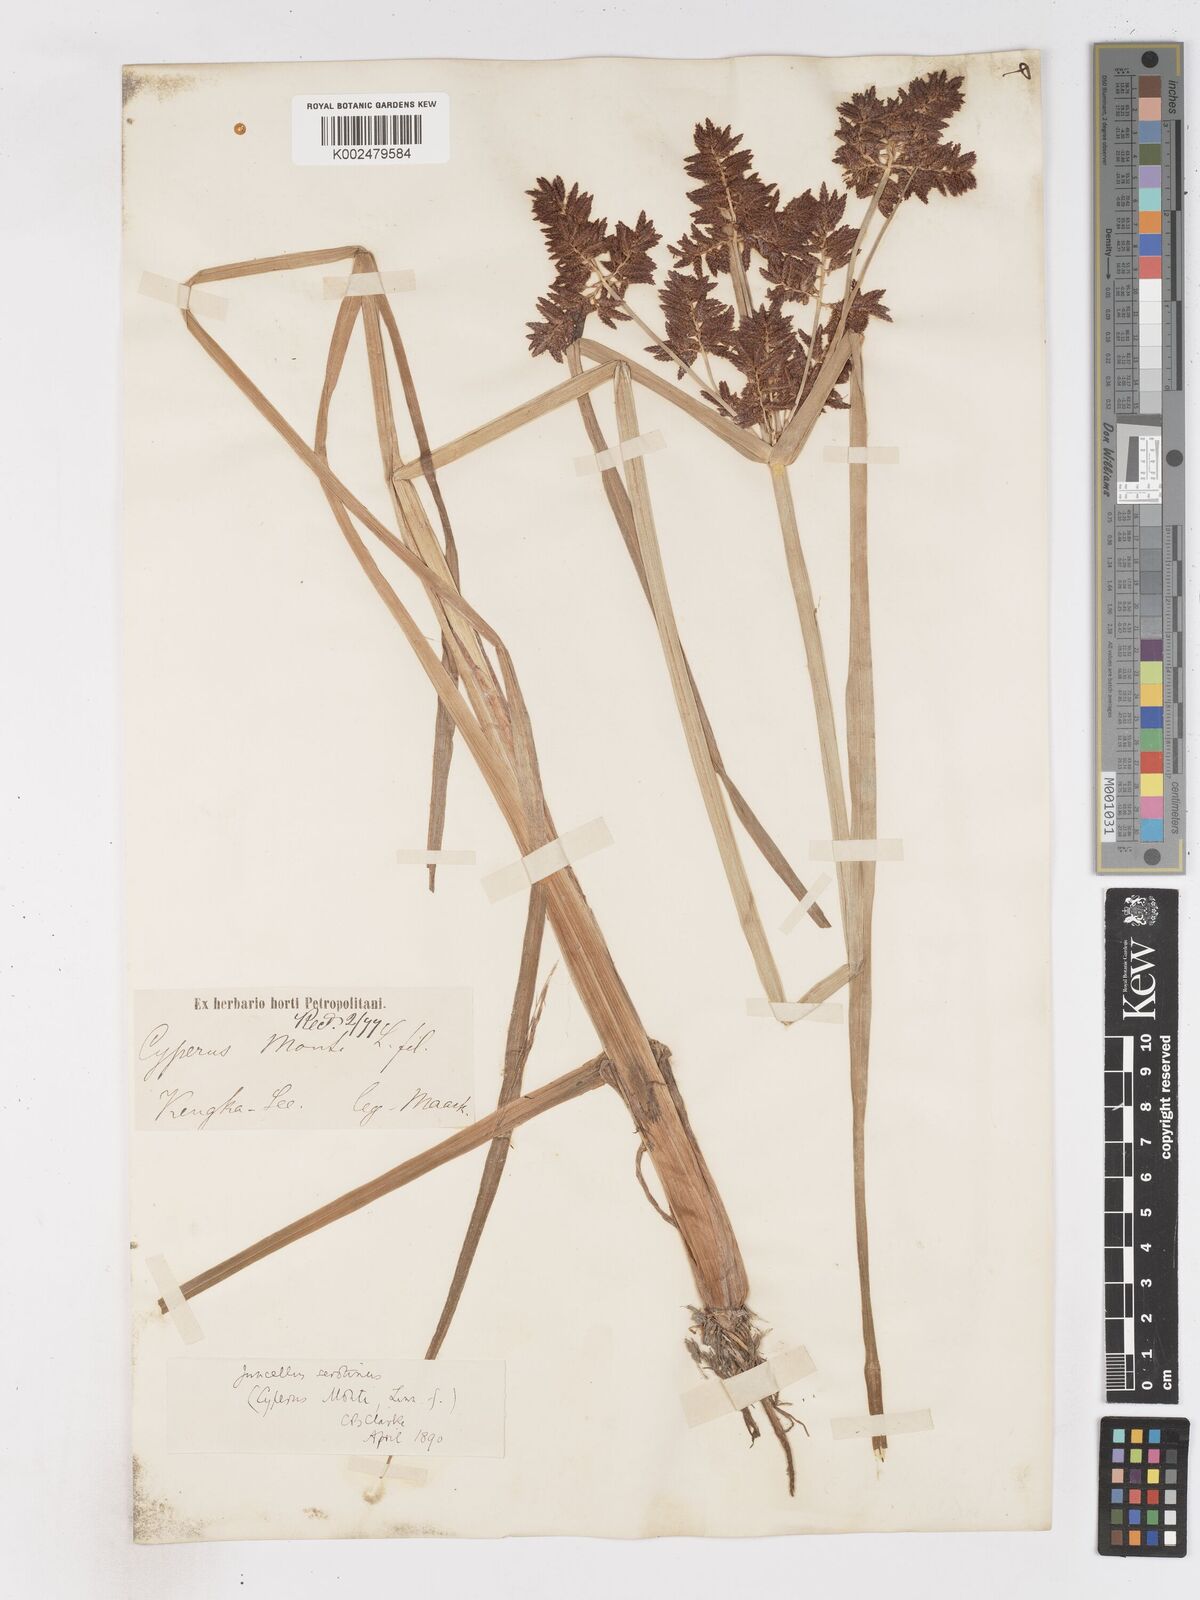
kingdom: Plantae
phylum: Tracheophyta
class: Liliopsida
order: Poales
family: Cyperaceae
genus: Cyperus
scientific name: Cyperus serotinus
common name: Tidalmarsh flatsedge
